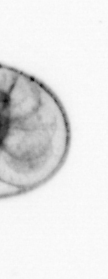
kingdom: Chromista
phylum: Myzozoa
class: Dinophyceae
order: Noctilucales
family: Noctilucaceae
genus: Noctiluca
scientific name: Noctiluca scintillans
